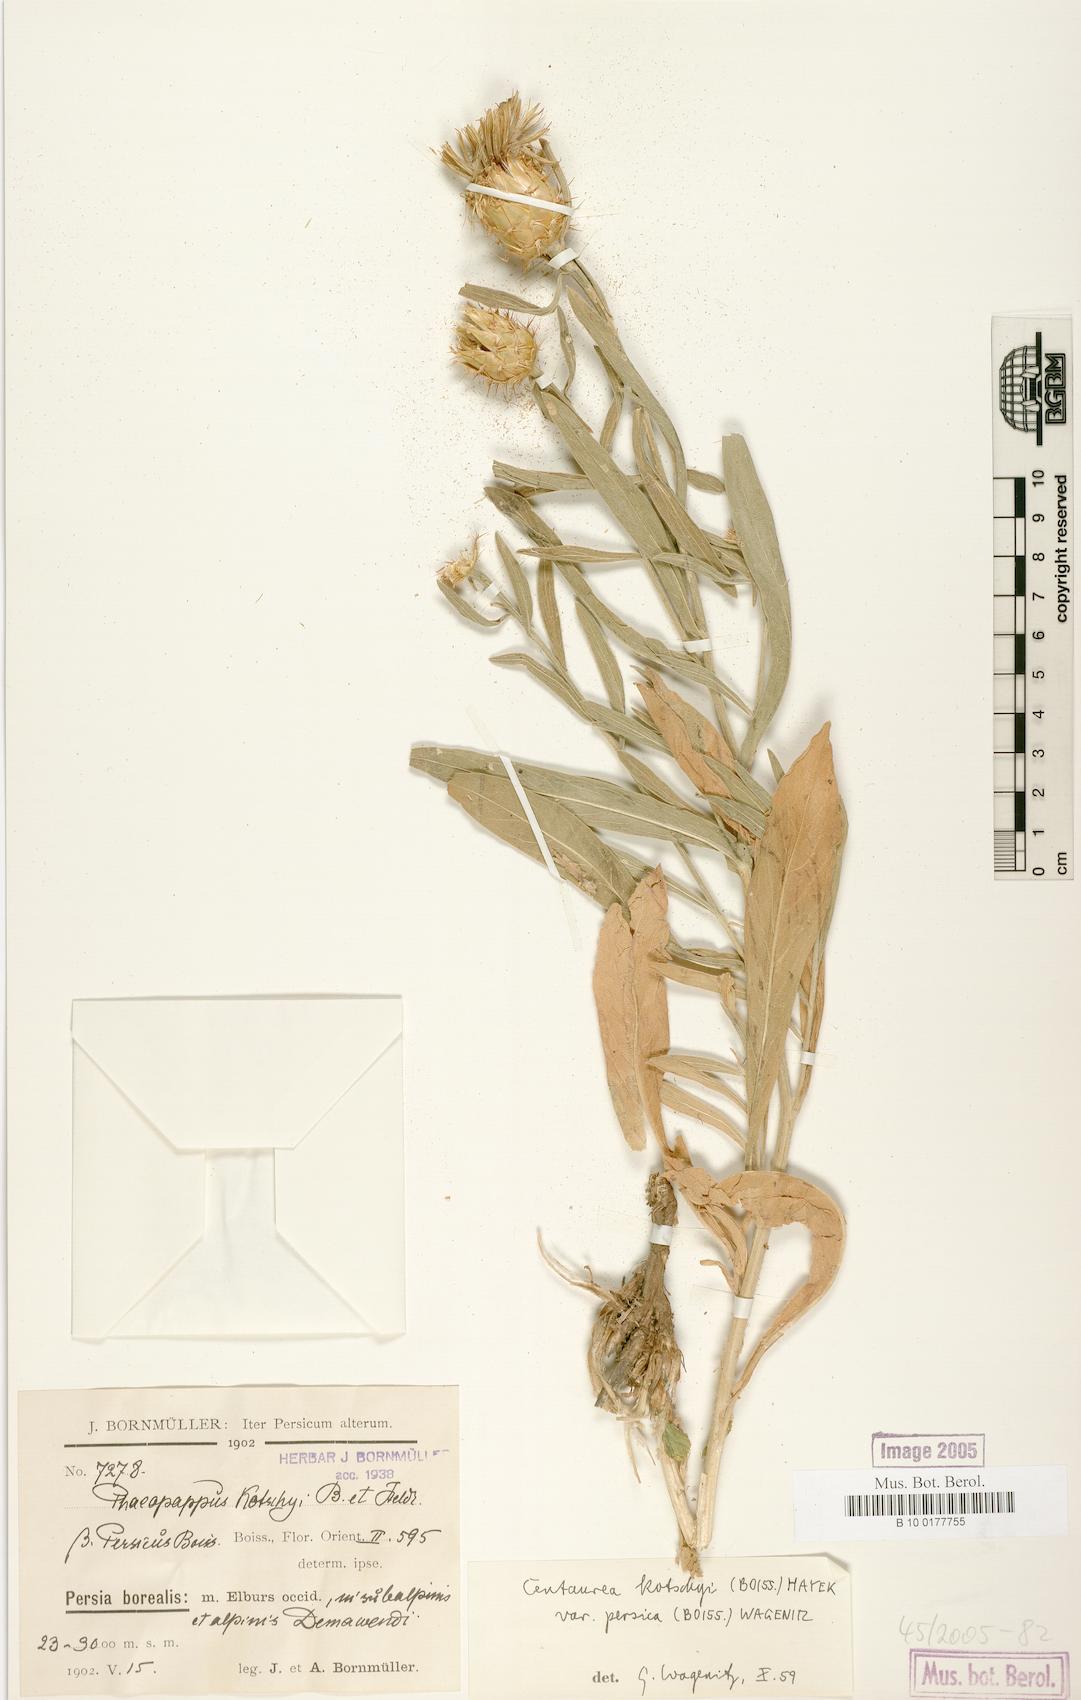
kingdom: Plantae
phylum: Tracheophyta
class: Magnoliopsida
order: Asterales
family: Asteraceae
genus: Centaurea
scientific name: Centaurea kotschyi
